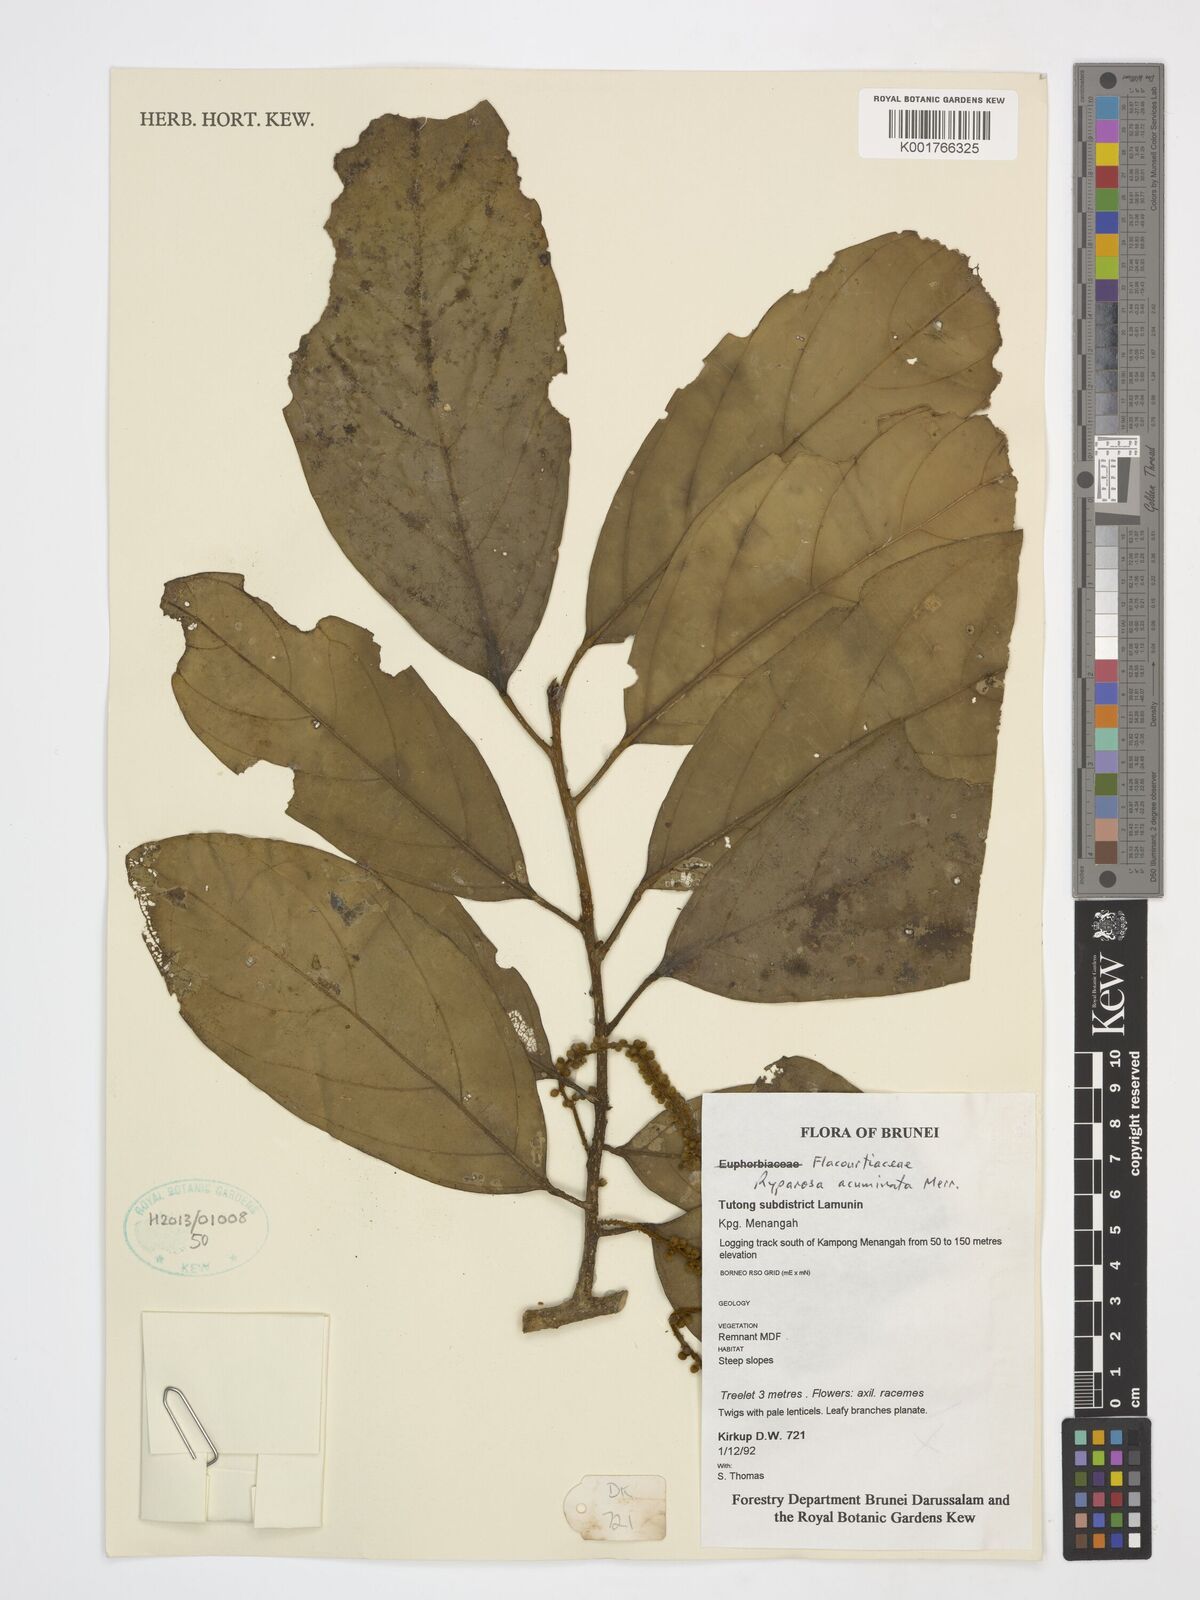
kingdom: Plantae
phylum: Tracheophyta
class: Magnoliopsida
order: Malpighiales
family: Achariaceae
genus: Ryparosa
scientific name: Ryparosa acuminata
